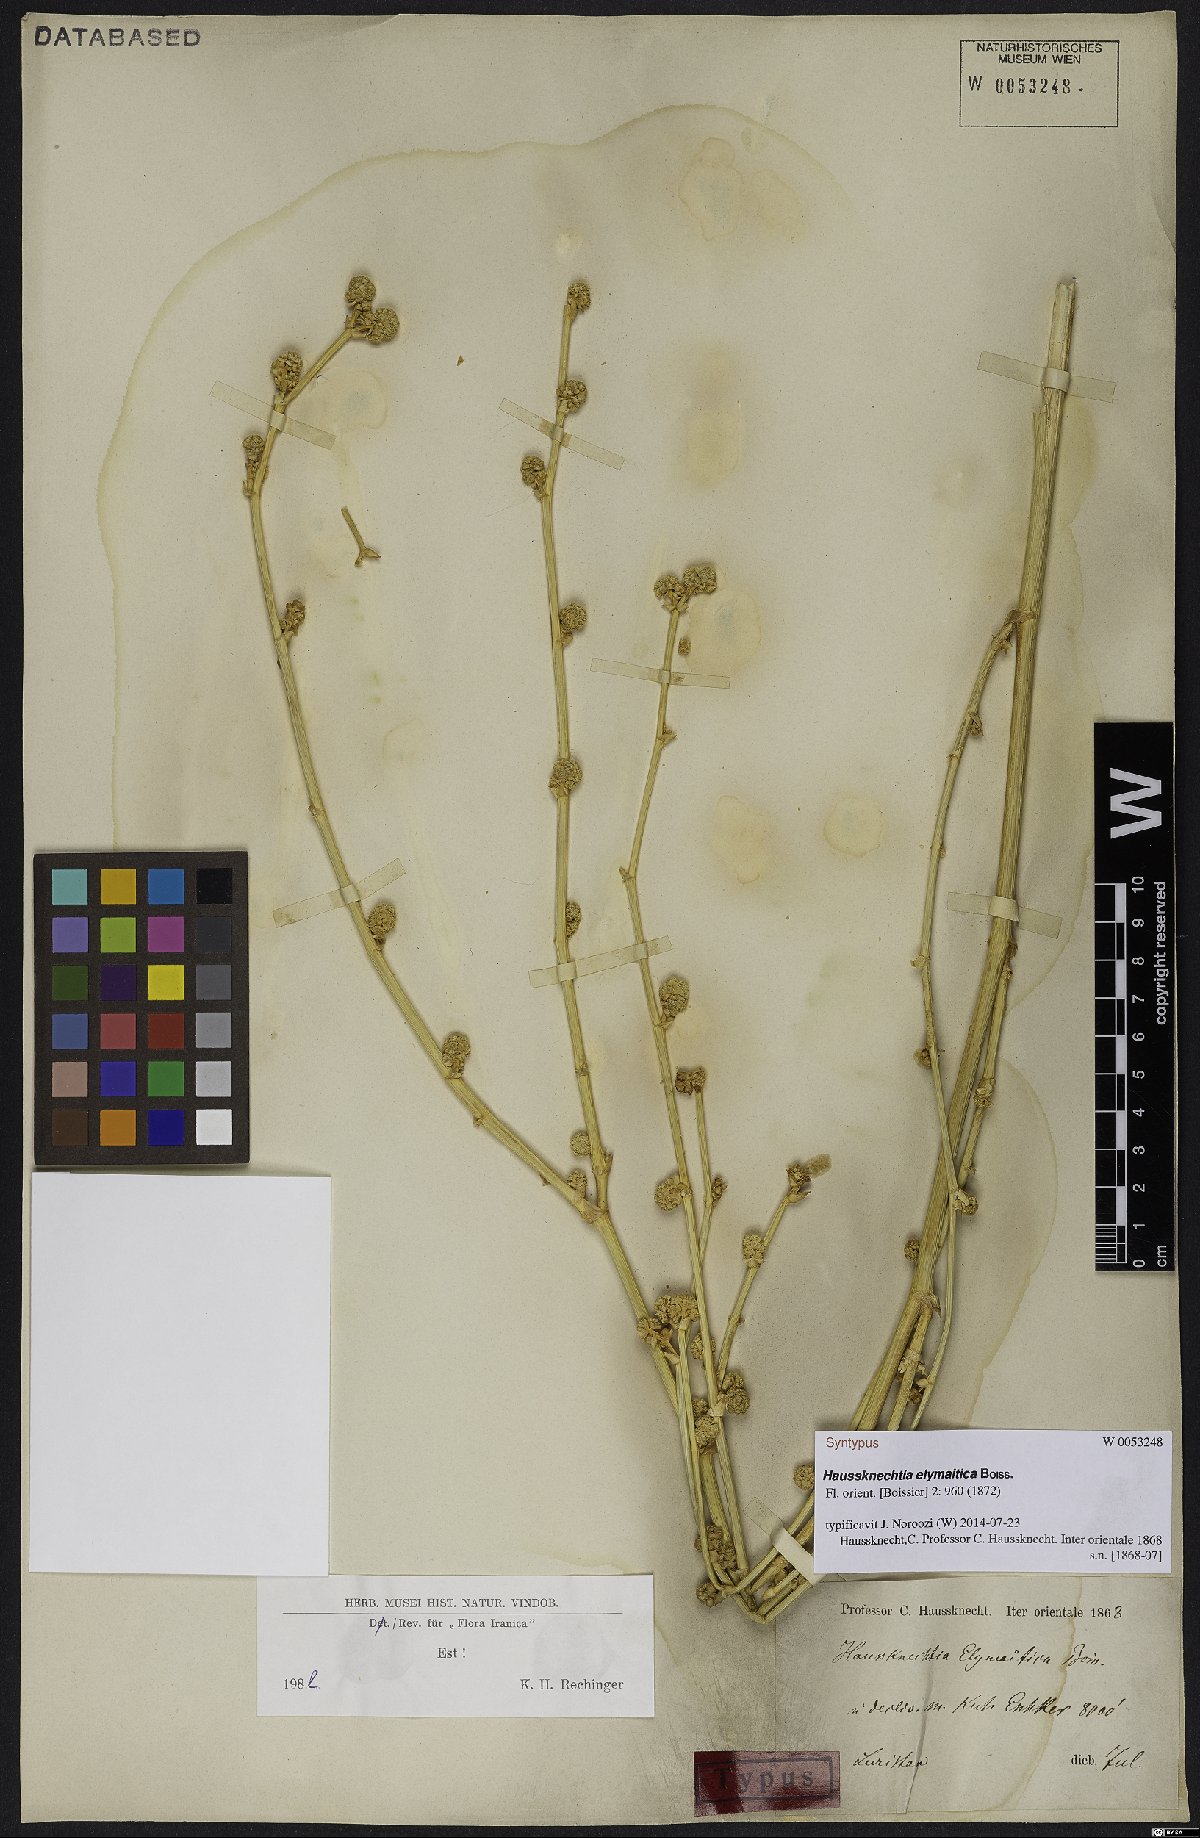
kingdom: Plantae
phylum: Tracheophyta
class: Magnoliopsida
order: Apiales
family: Apiaceae
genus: Haussknechtia
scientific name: Haussknechtia elymaitica
